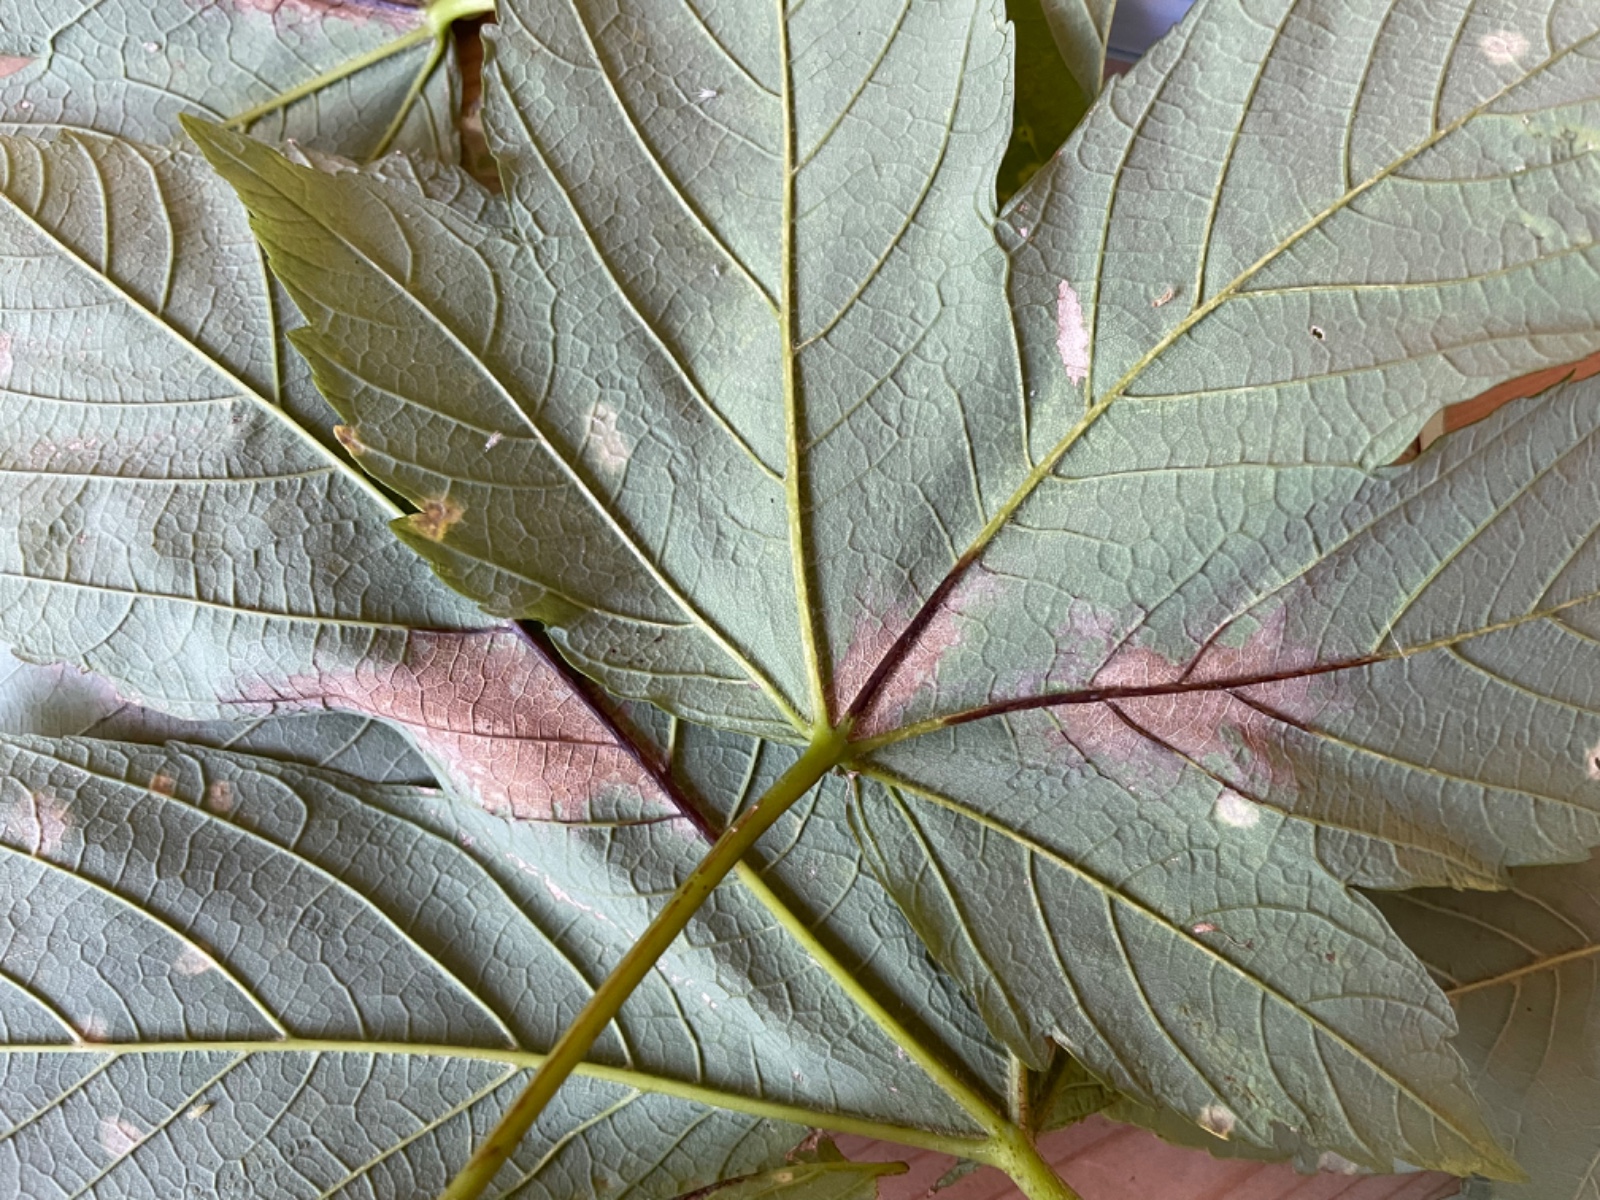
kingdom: Fungi
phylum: Ascomycota
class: Sordariomycetes
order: Diaporthales
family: Gnomoniaceae
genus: Pleuroceras
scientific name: Pleuroceras pseudoplatani
